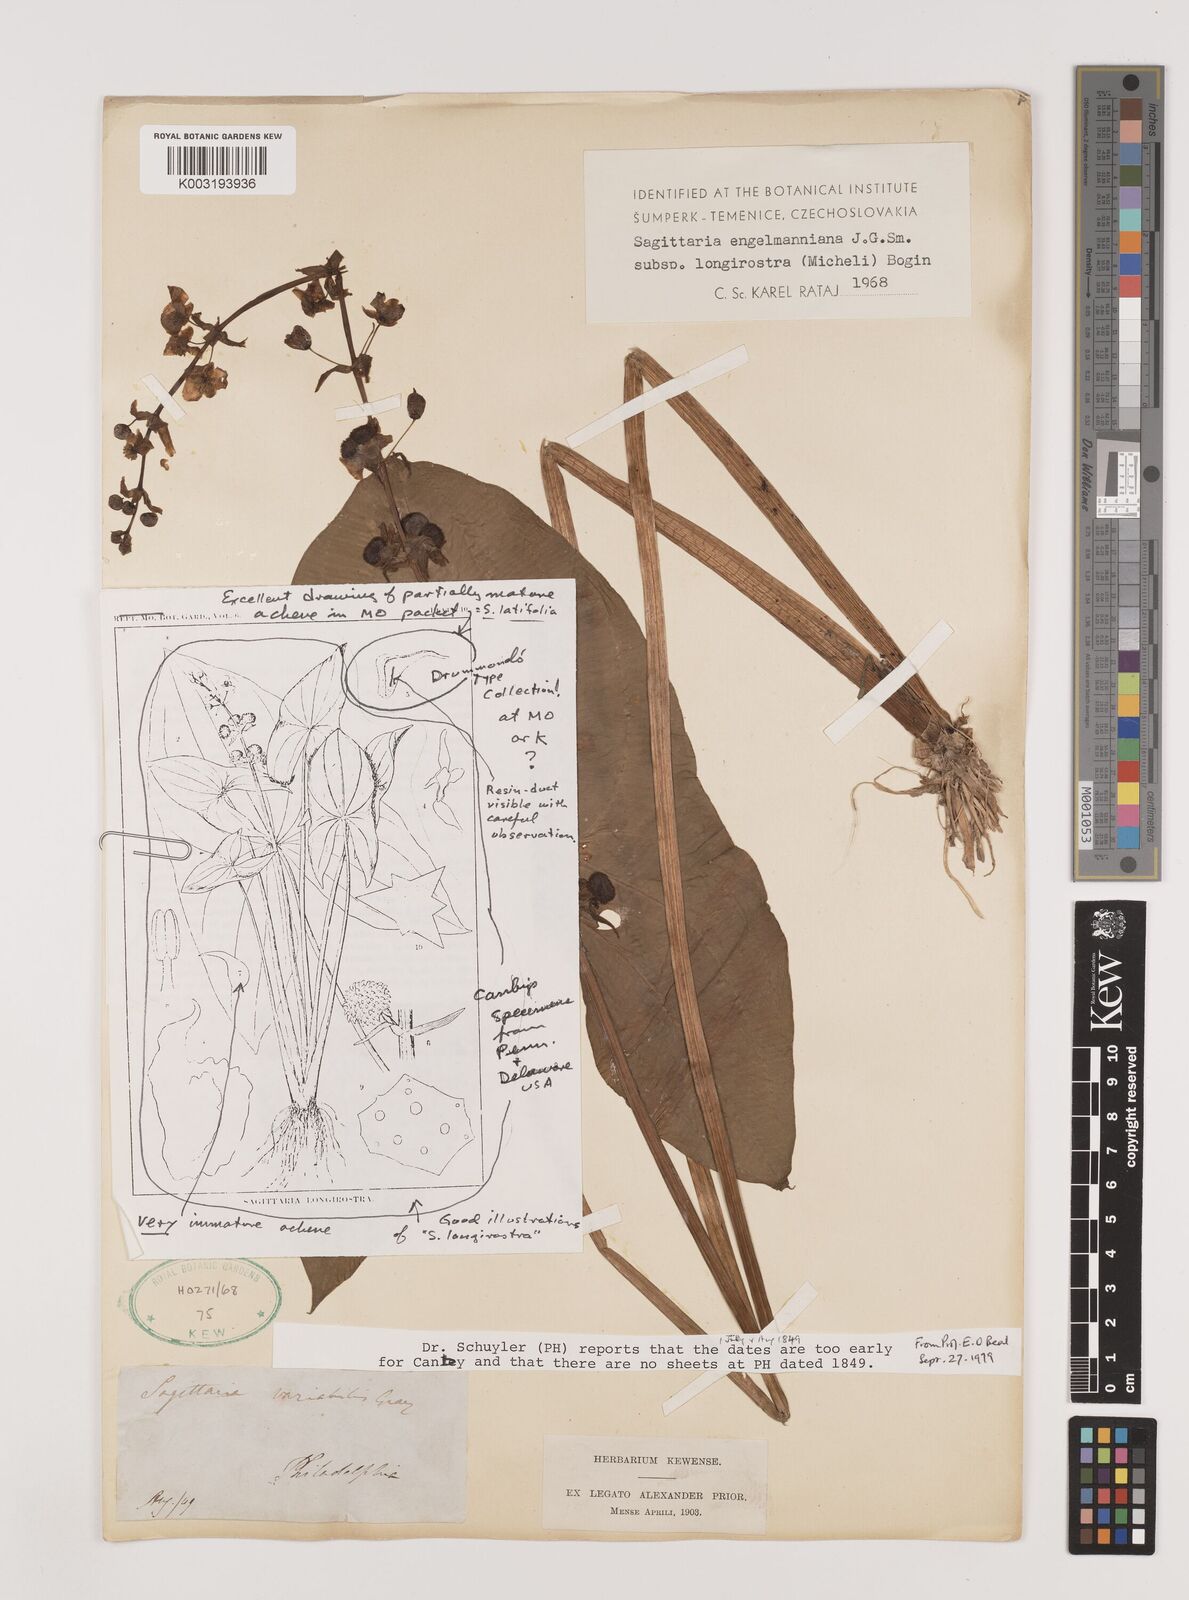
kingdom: Plantae
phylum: Tracheophyta
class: Liliopsida
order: Alismatales
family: Alismataceae
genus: Sagittaria
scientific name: Sagittaria engelmanniana
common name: Acid-water arrowhead
